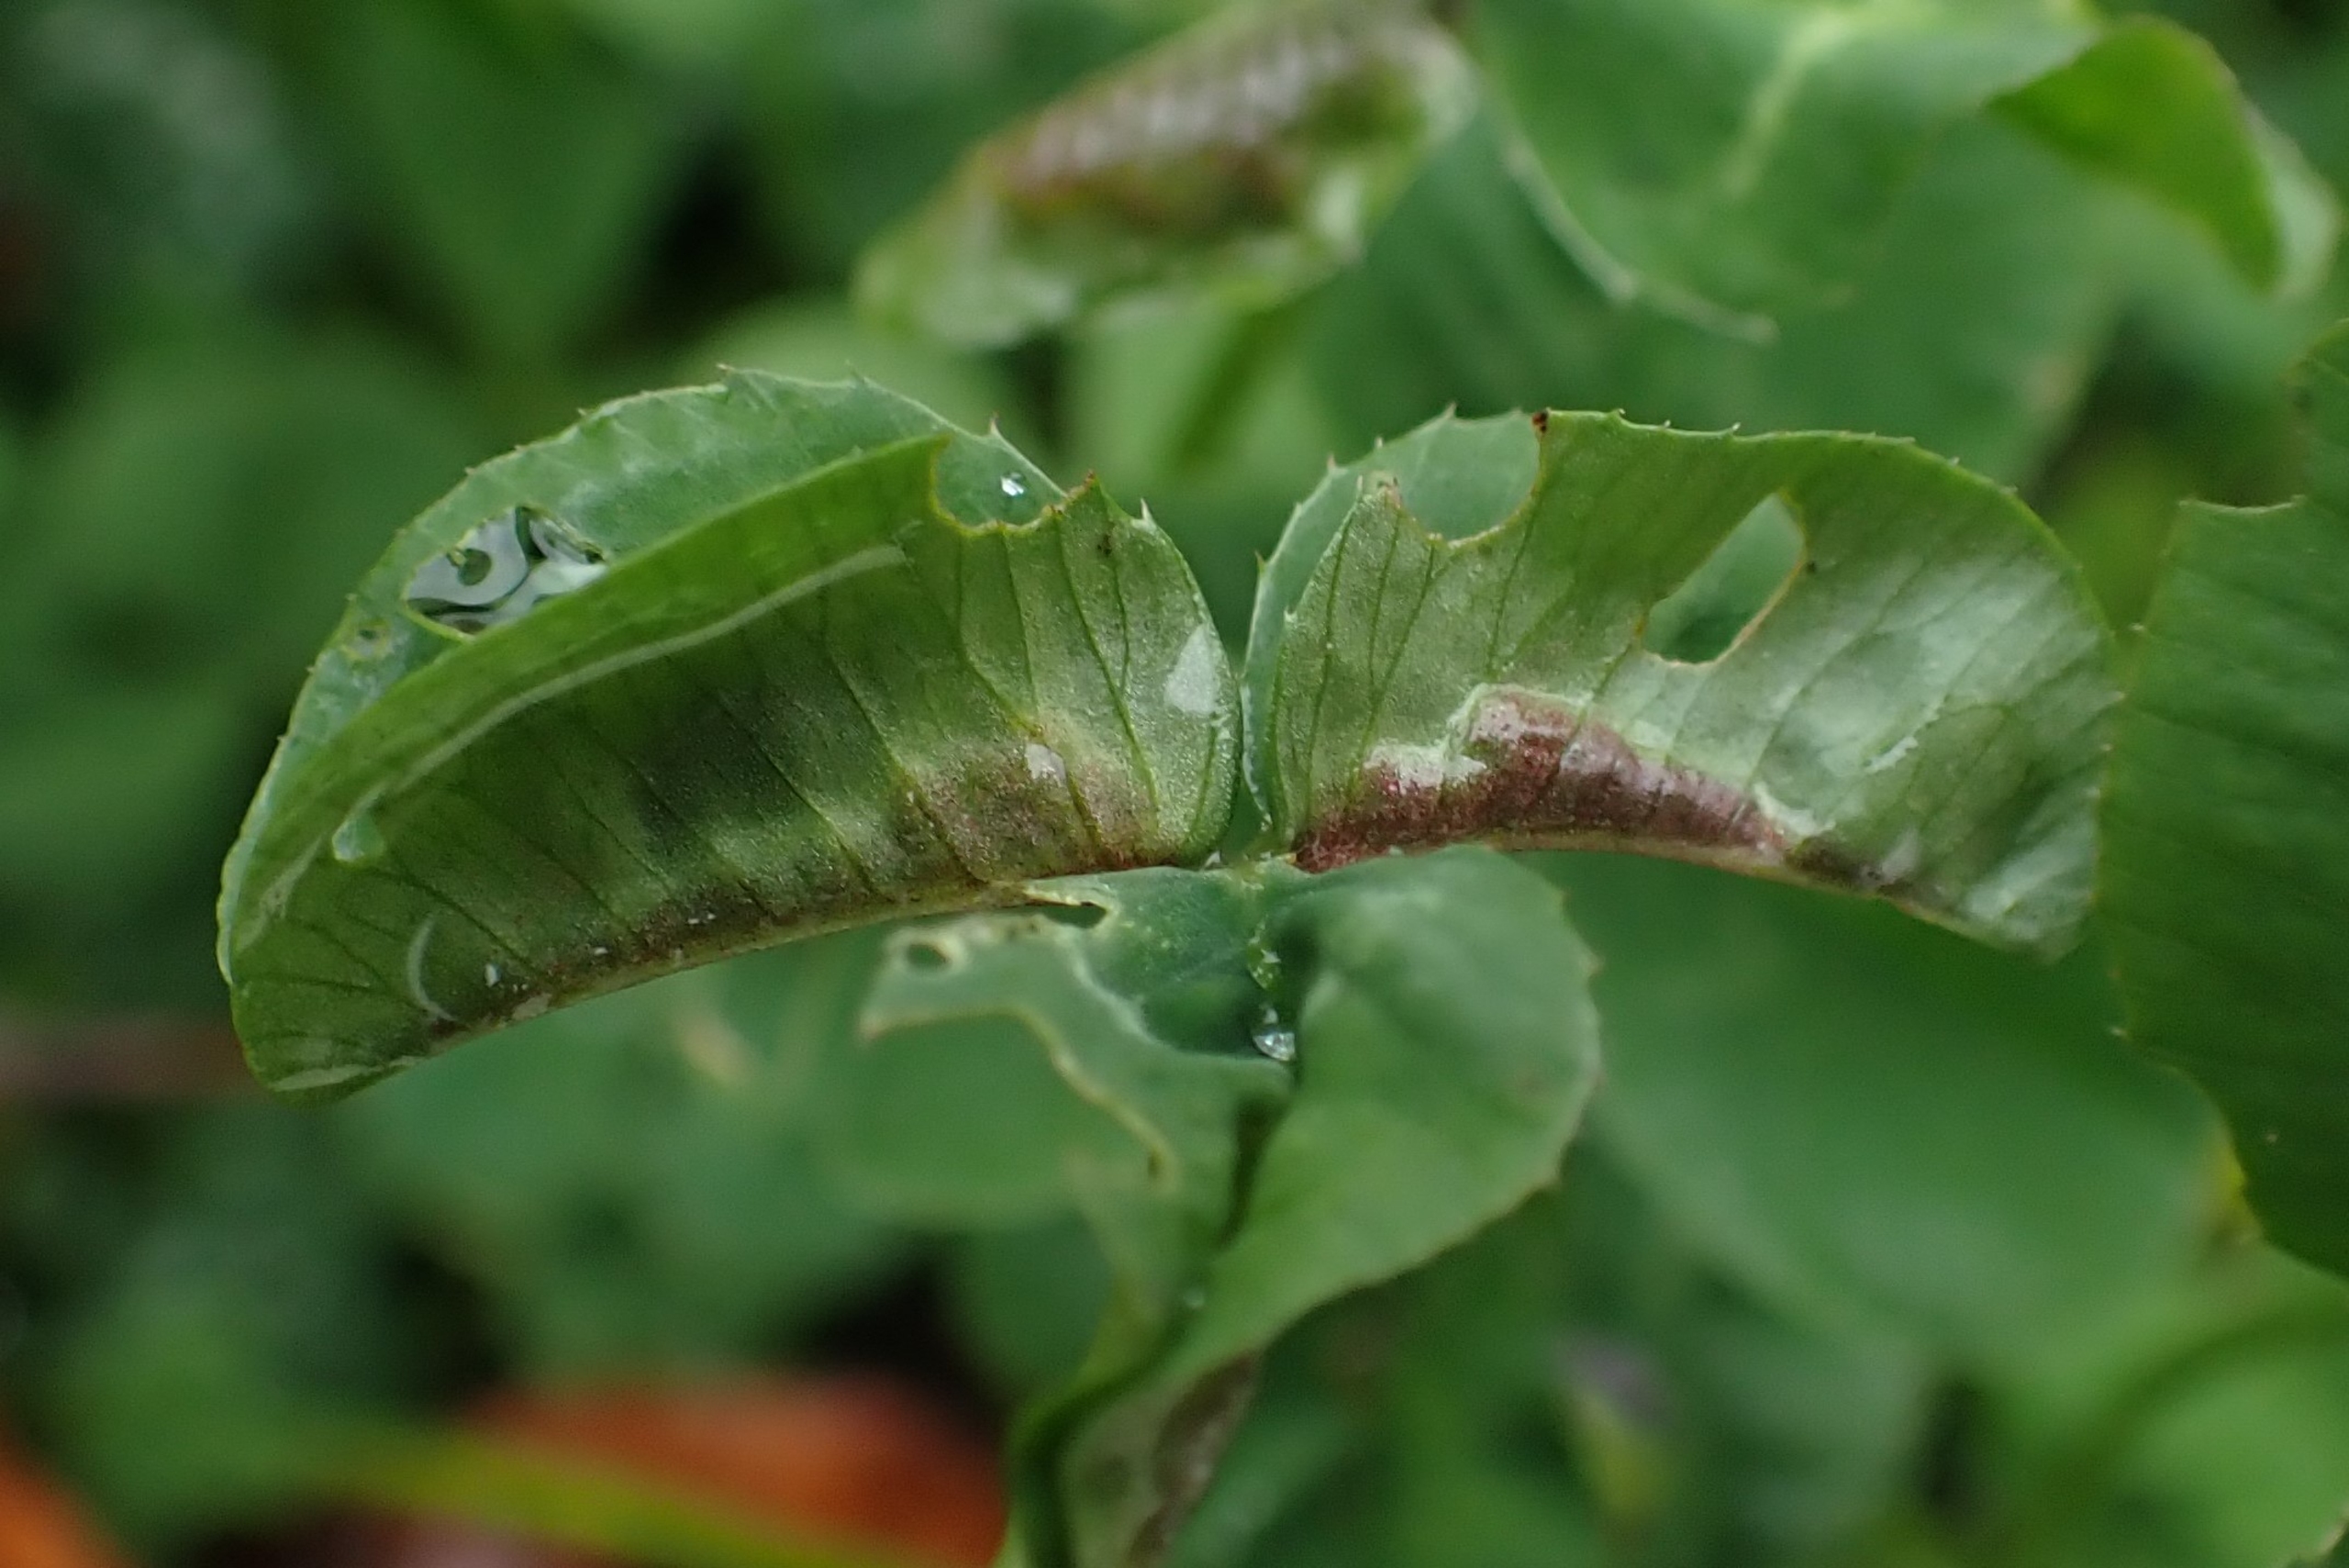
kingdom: Animalia
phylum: Arthropoda
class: Insecta
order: Diptera
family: Cecidomyiidae
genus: Dasineura
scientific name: Dasineura trifolii
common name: Kløverbladgalmyg
